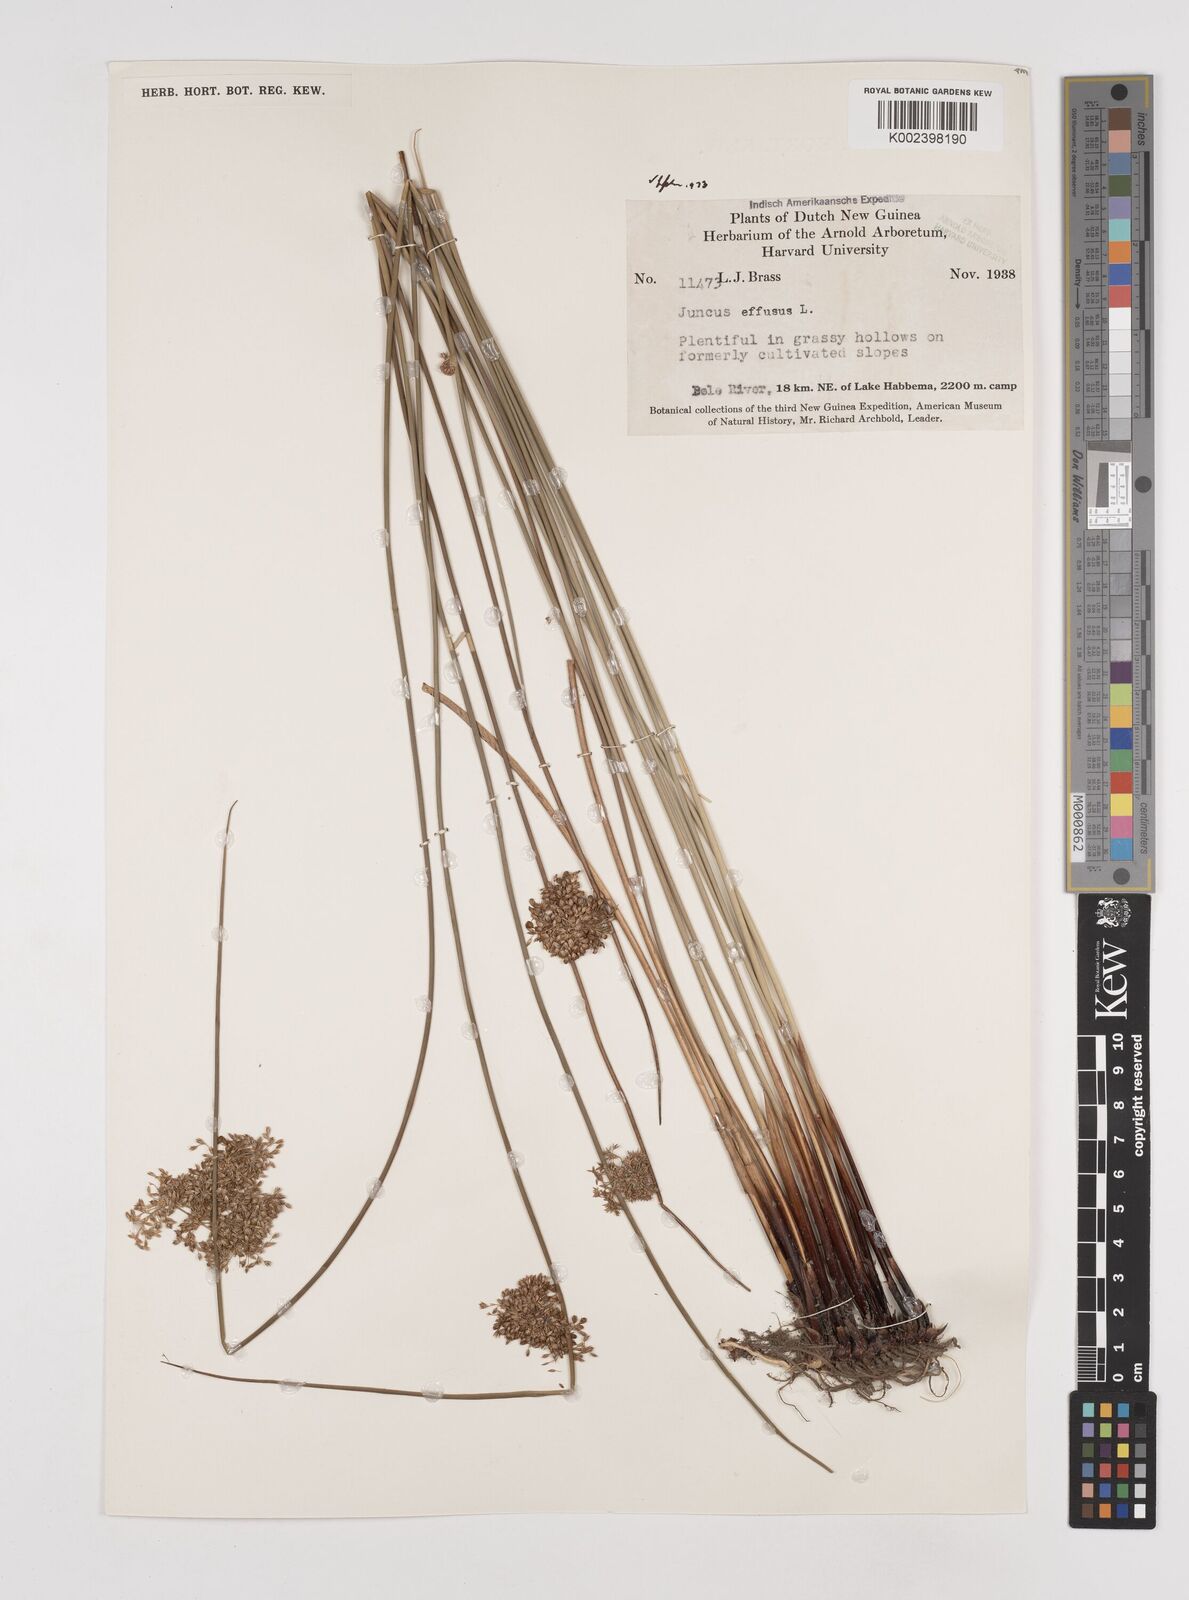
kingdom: Plantae
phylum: Tracheophyta
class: Liliopsida
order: Poales
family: Juncaceae
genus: Juncus
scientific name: Juncus decipiens
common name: Lamp rush
